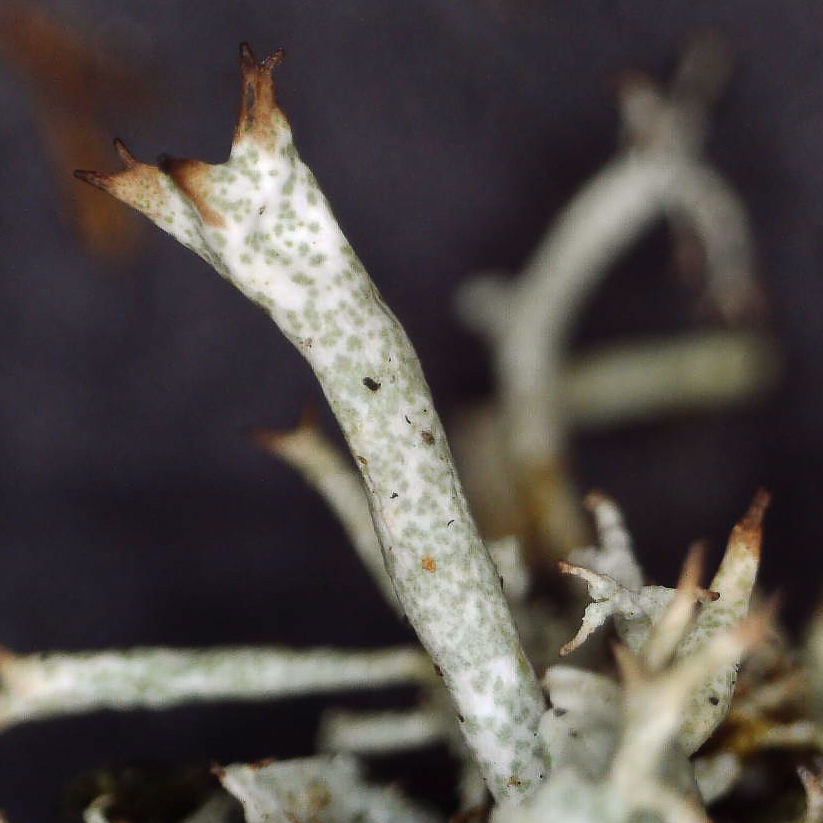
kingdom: Fungi
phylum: Ascomycota
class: Lecanoromycetes
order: Lecanorales
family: Cladoniaceae
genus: Cladonia
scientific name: Cladonia uncialis
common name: pigget bægerlav
